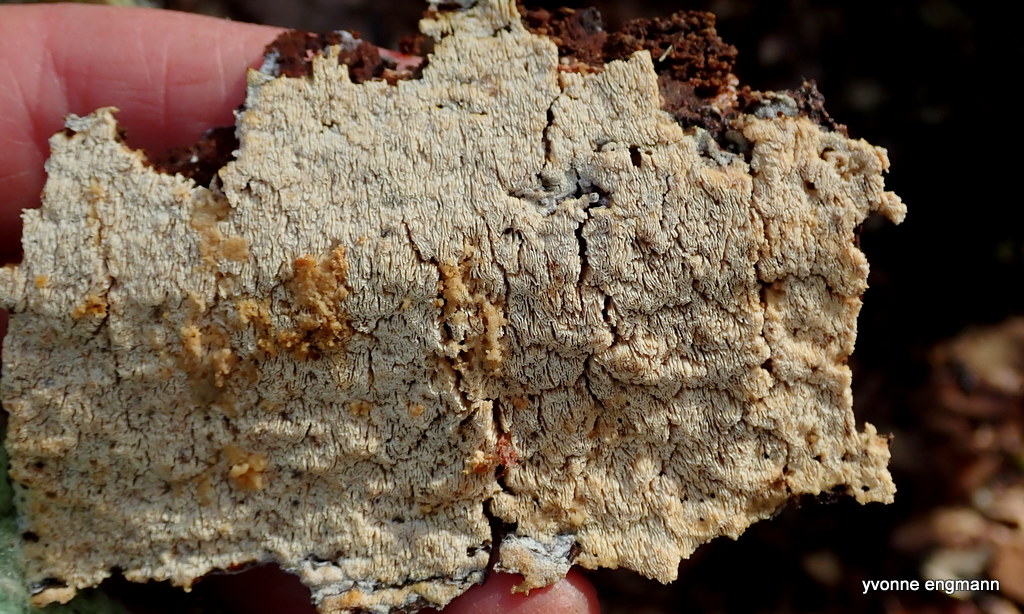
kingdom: Fungi
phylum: Basidiomycota
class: Agaricomycetes
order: Hymenochaetales
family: Schizoporaceae
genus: Xylodon
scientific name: Xylodon subtropicus
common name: labyrint-tandsvamp
